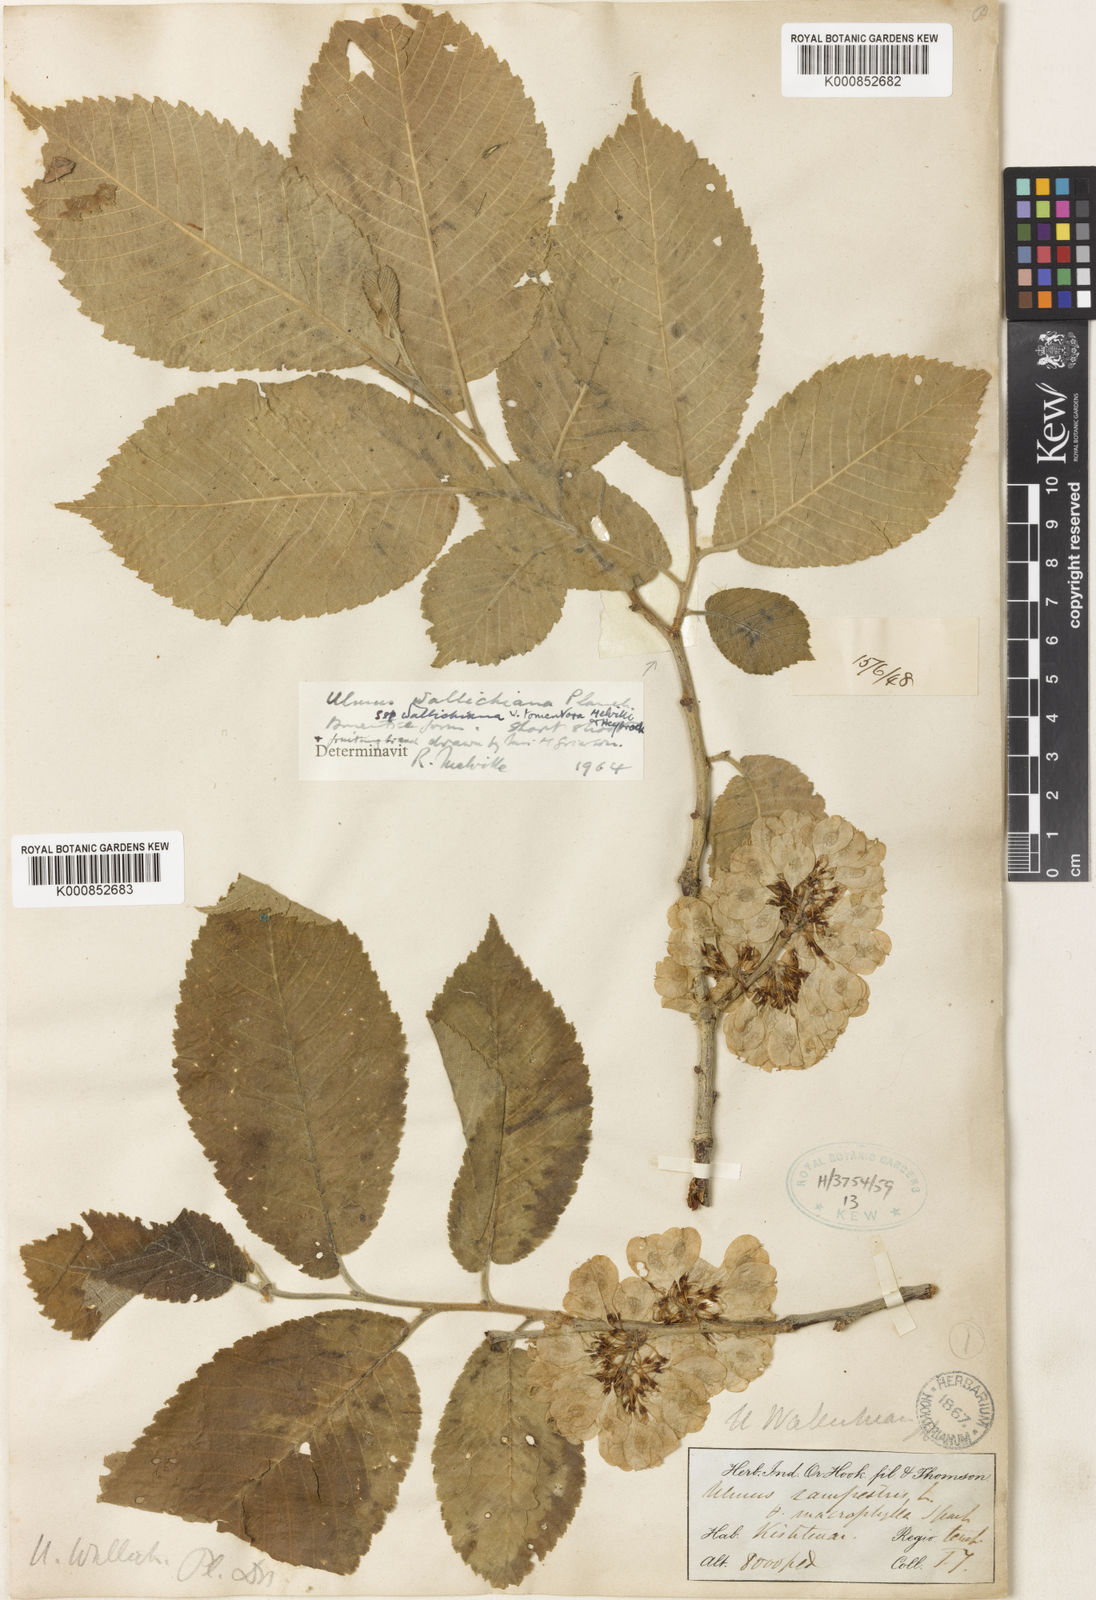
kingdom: Plantae
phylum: Tracheophyta
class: Magnoliopsida
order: Rosales
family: Ulmaceae
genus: Ulmus
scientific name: Ulmus wallichiana
